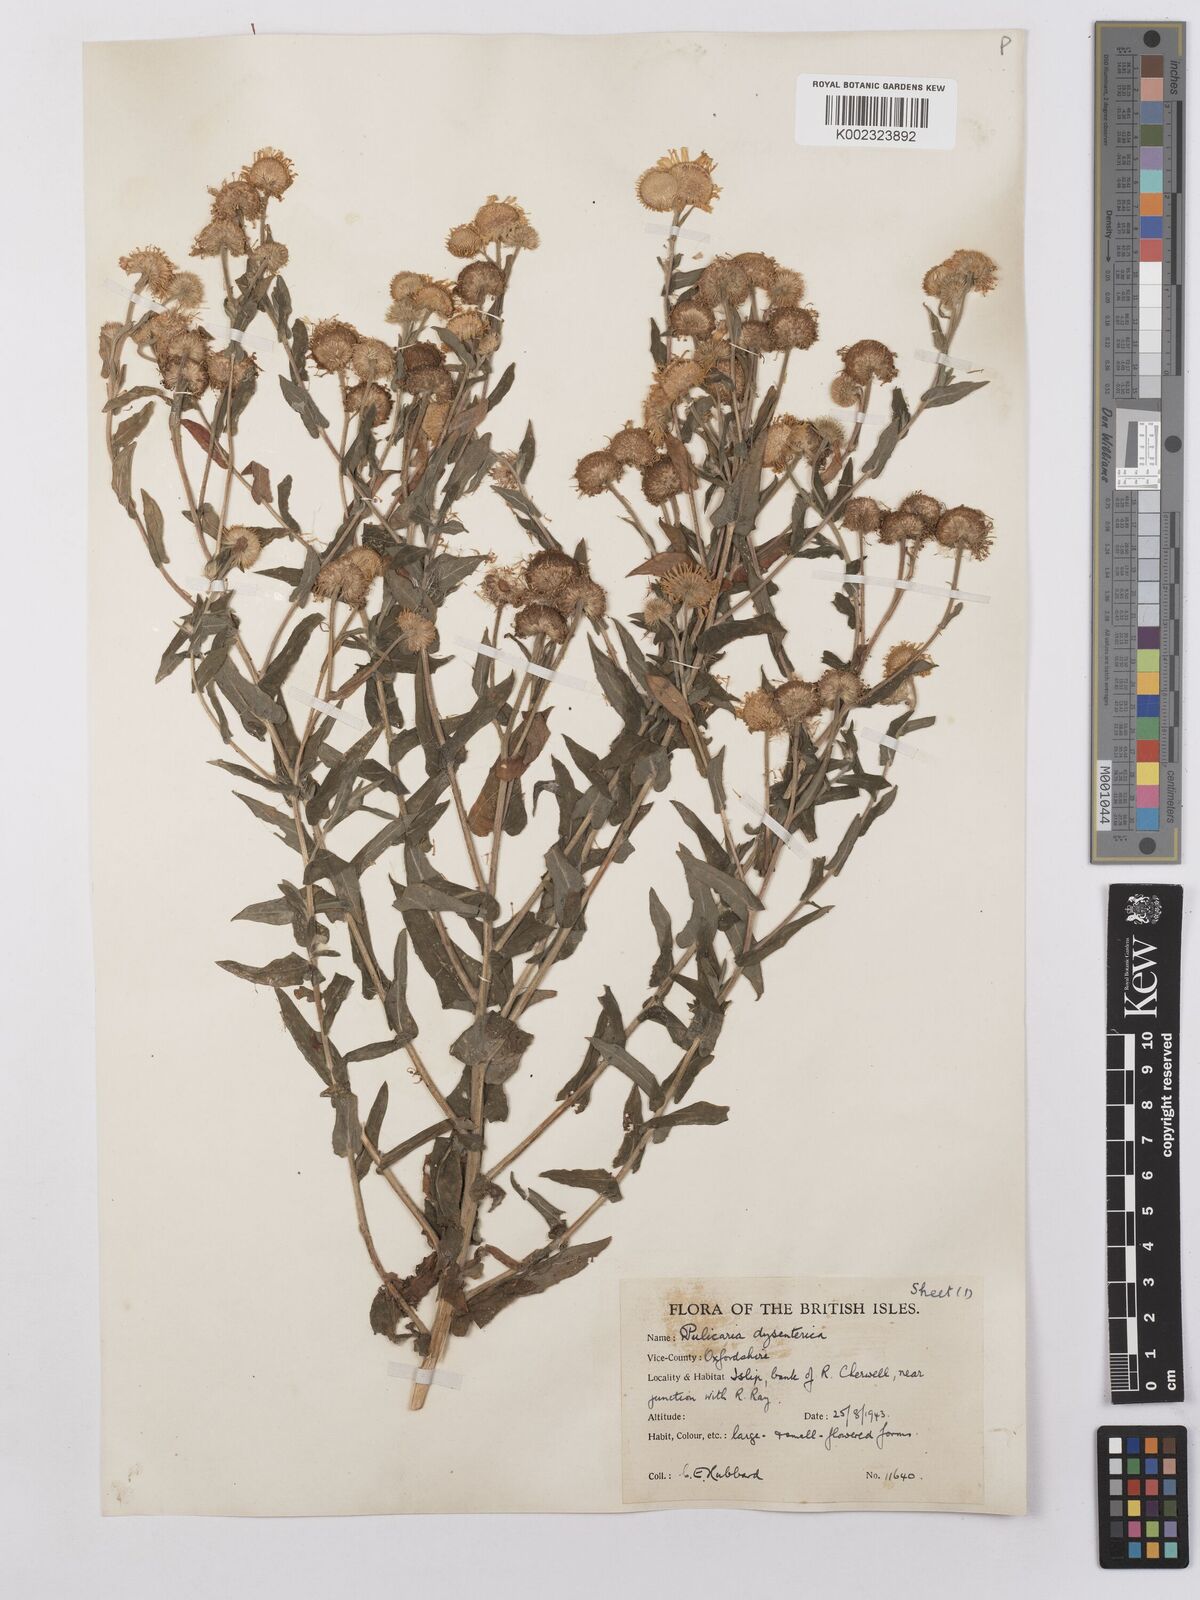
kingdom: Plantae
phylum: Tracheophyta
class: Magnoliopsida
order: Asterales
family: Asteraceae
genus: Pulicaria
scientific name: Pulicaria dysenterica
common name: Common fleabane
